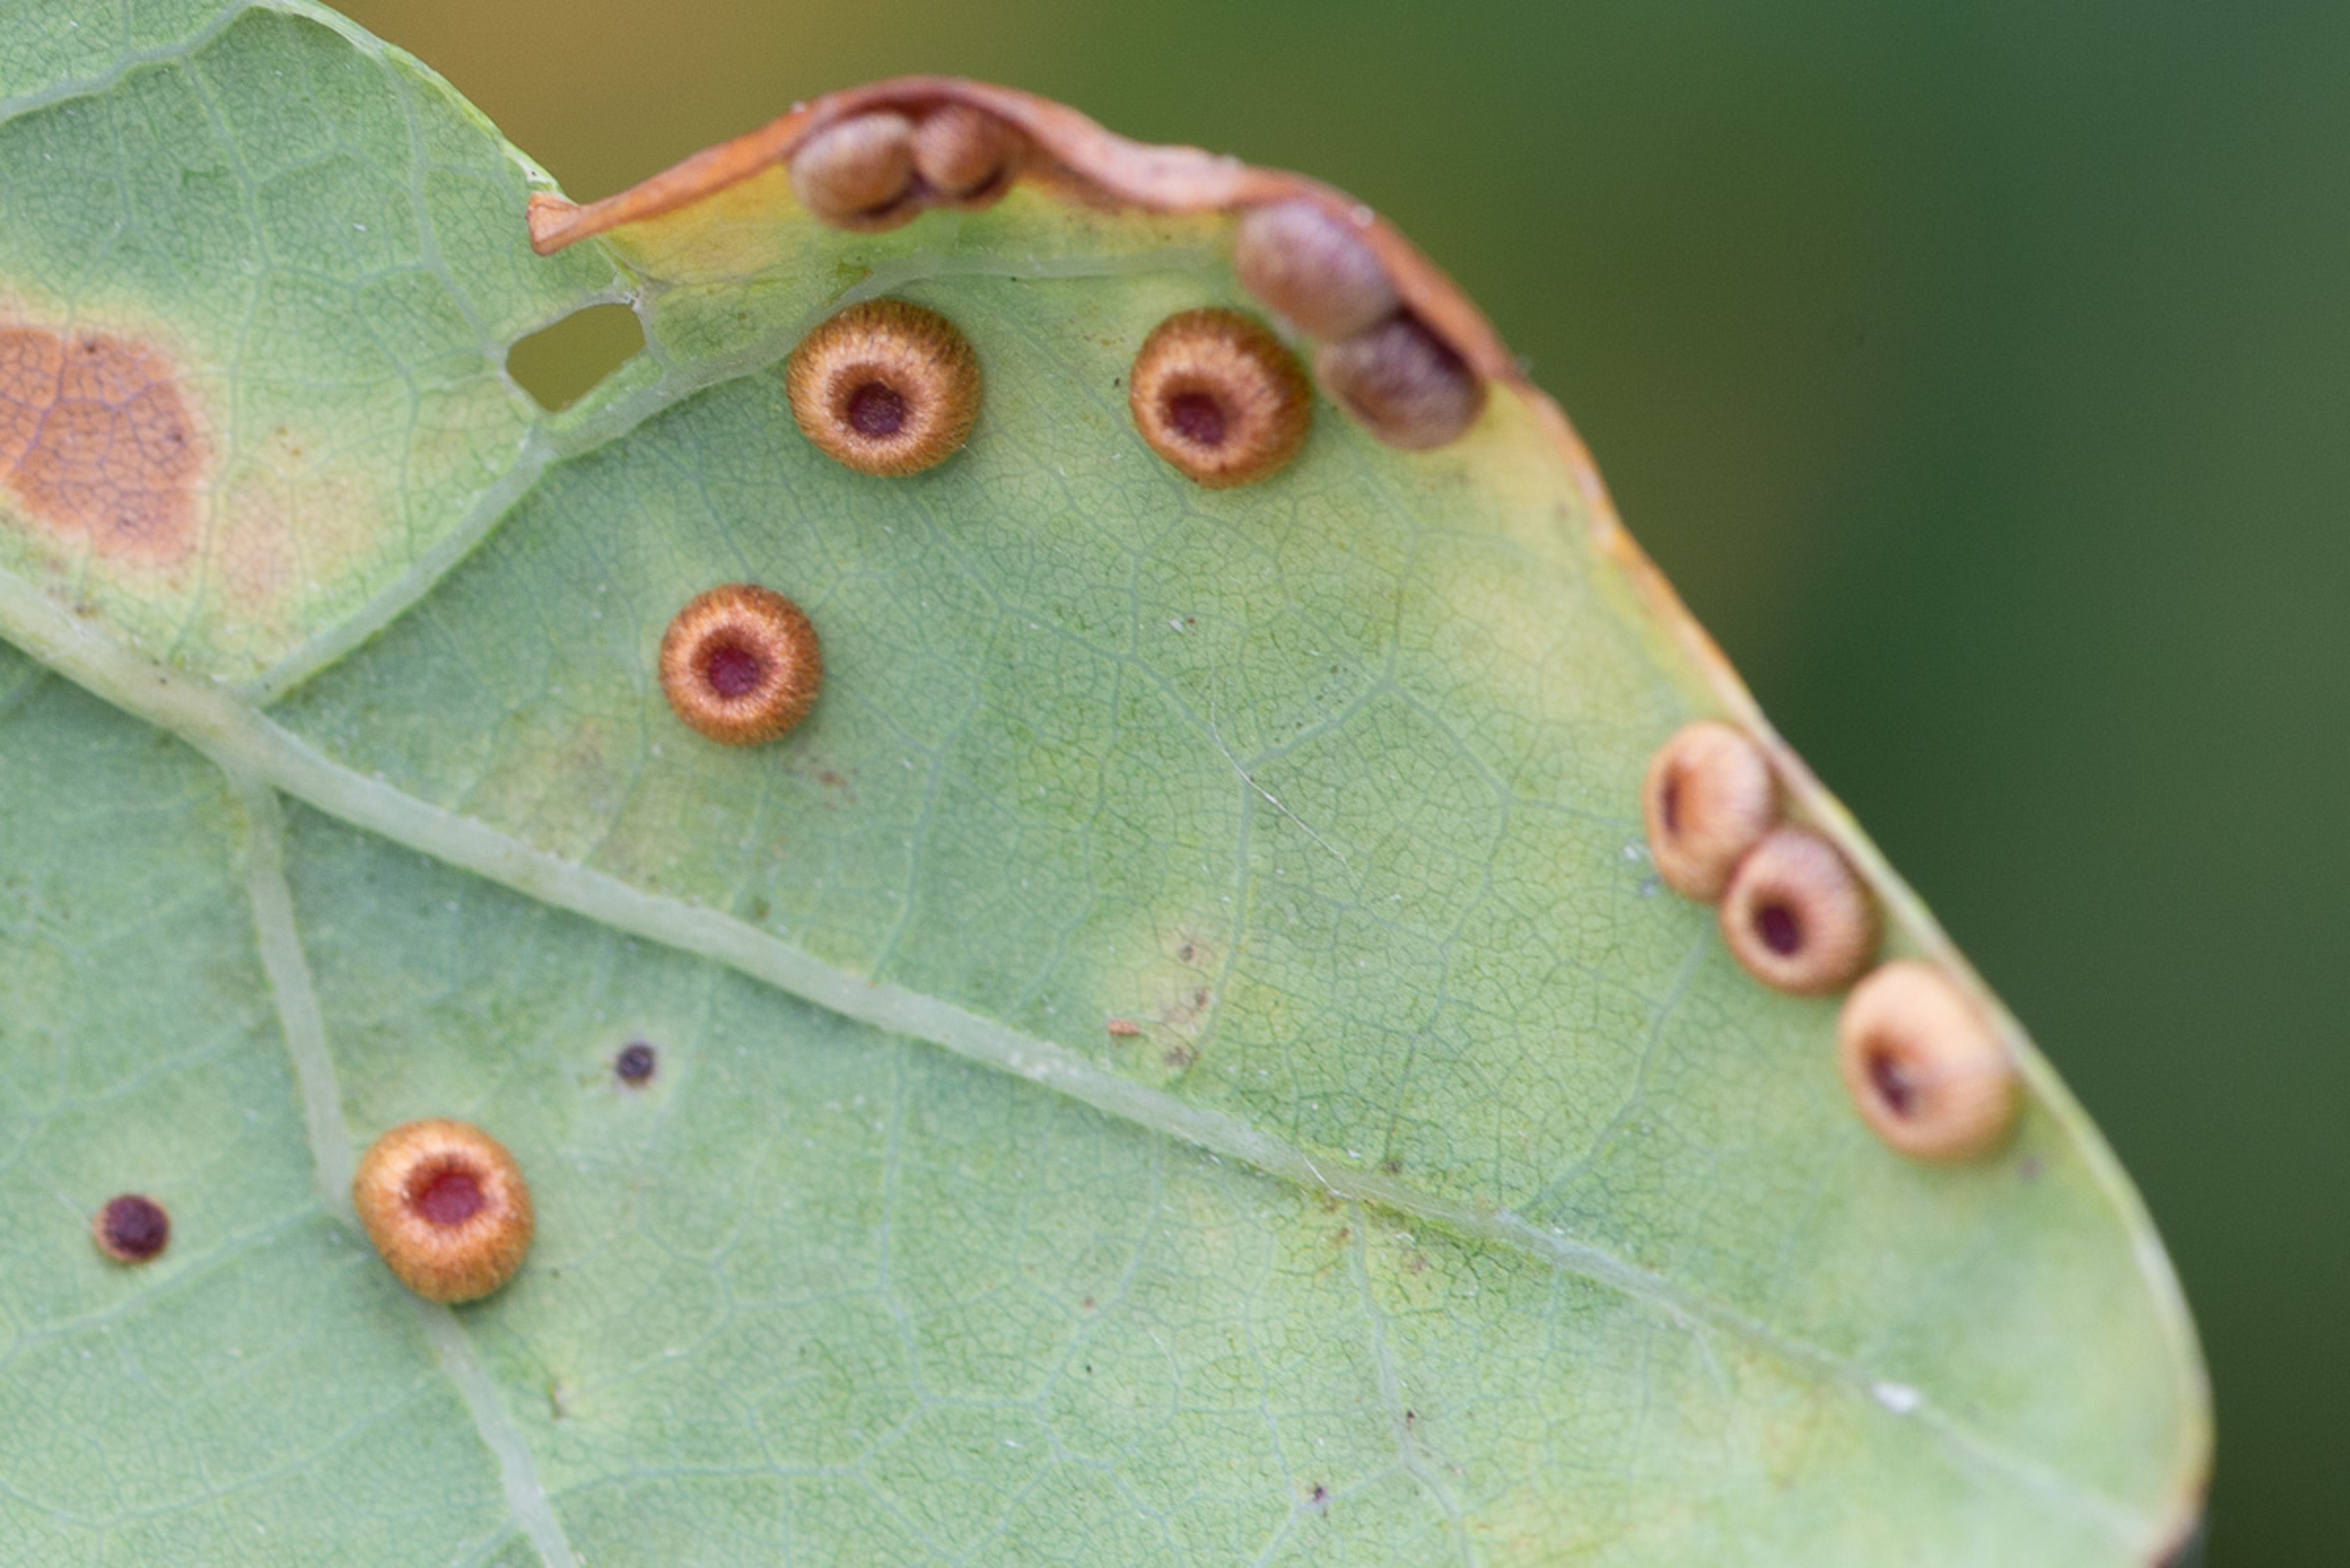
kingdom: Animalia
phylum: Arthropoda
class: Insecta
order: Hymenoptera
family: Cynipidae
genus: Neuroterus
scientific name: Neuroterus numismalis
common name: Knapgalhveps
